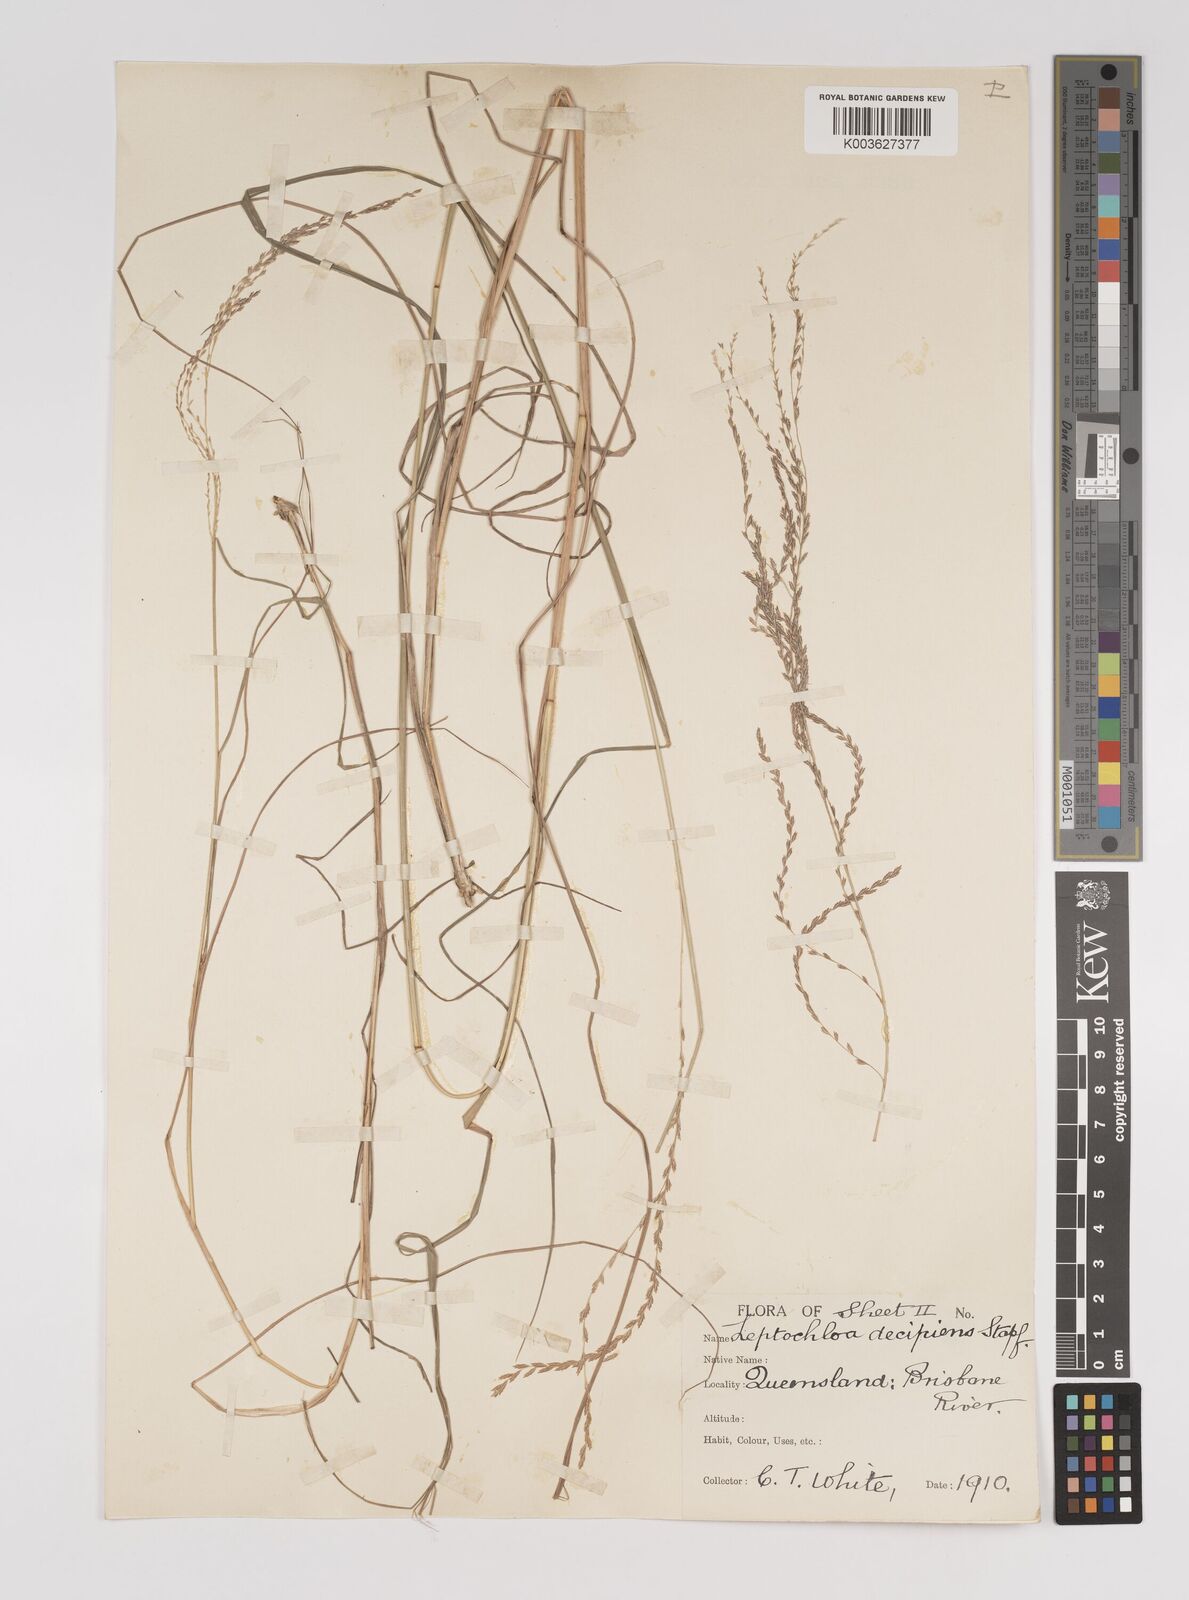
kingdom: Plantae
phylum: Tracheophyta
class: Liliopsida
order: Poales
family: Poaceae
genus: Leptochloa
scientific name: Leptochloa decipiens
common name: Australian sprangletop
